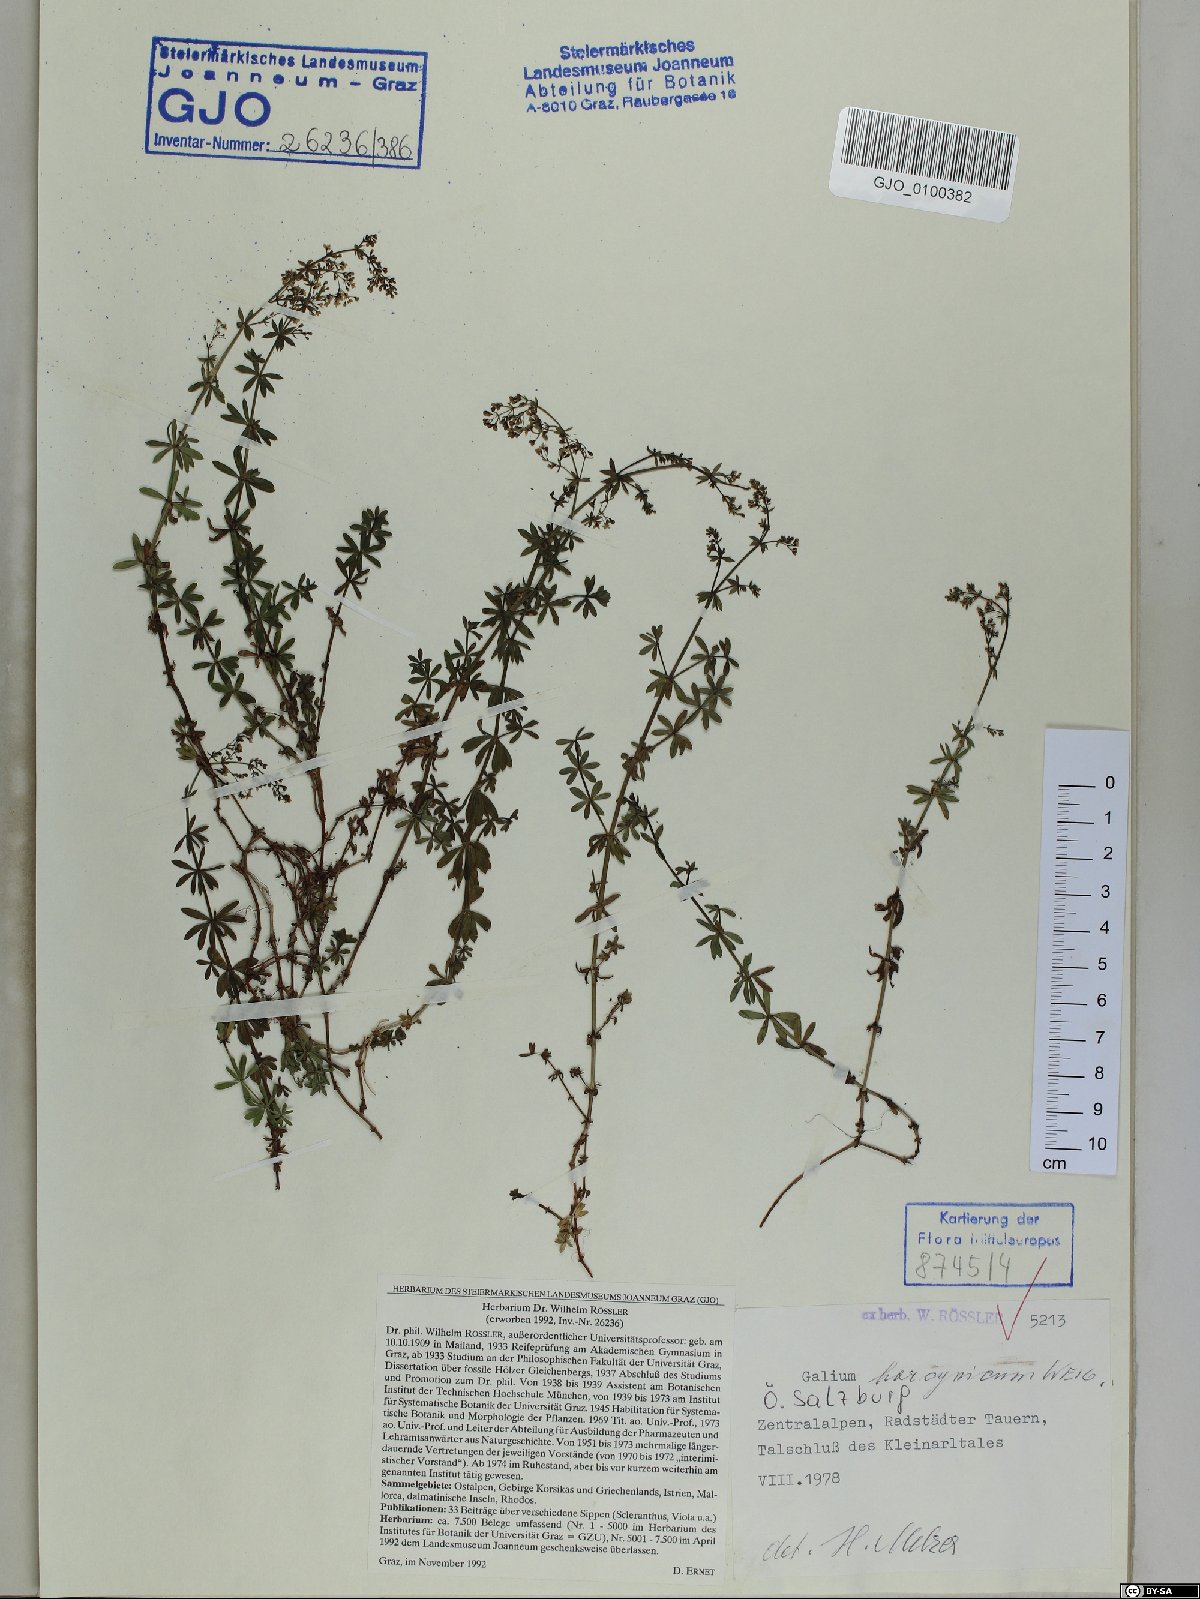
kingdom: Plantae
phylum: Tracheophyta
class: Magnoliopsida
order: Gentianales
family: Rubiaceae
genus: Galium
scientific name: Galium saxatile
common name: Heath bedstraw
